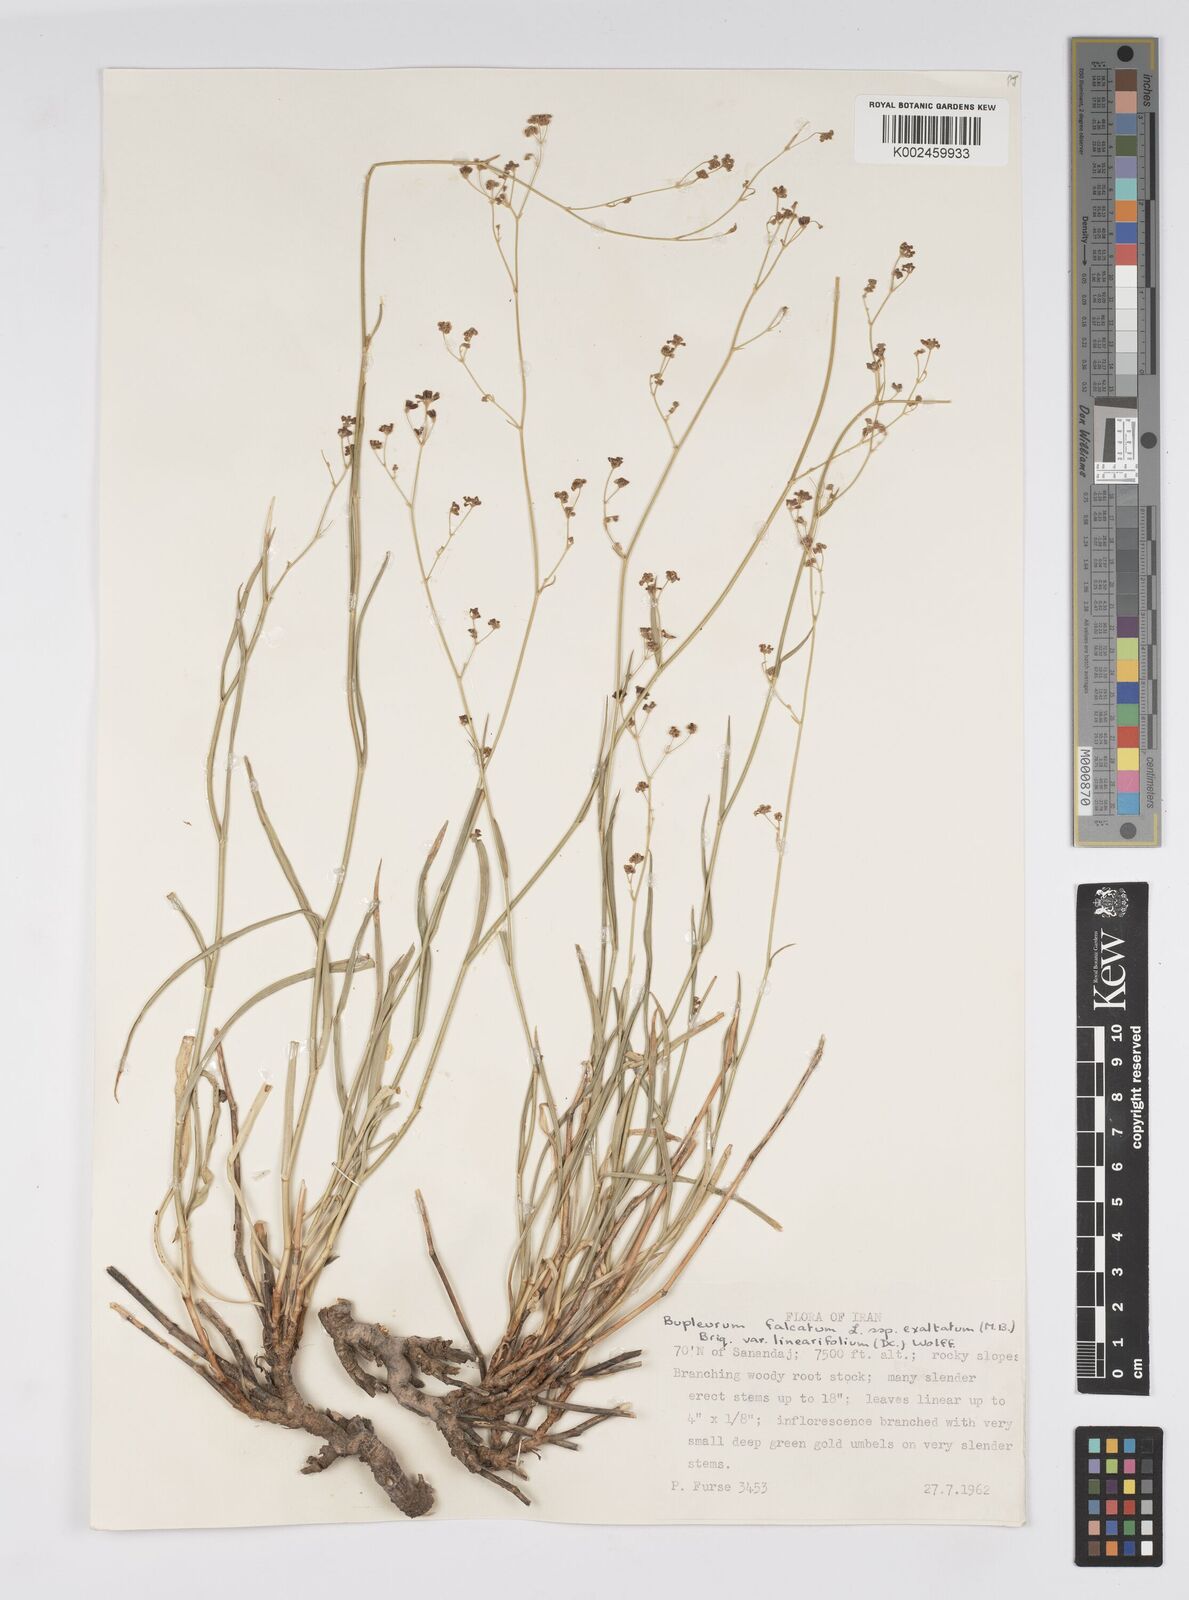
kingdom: Plantae
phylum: Tracheophyta
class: Magnoliopsida
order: Apiales
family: Apiaceae
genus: Bupleurum
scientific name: Bupleurum falcatum
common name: Sickle-leaved hare's-ear
